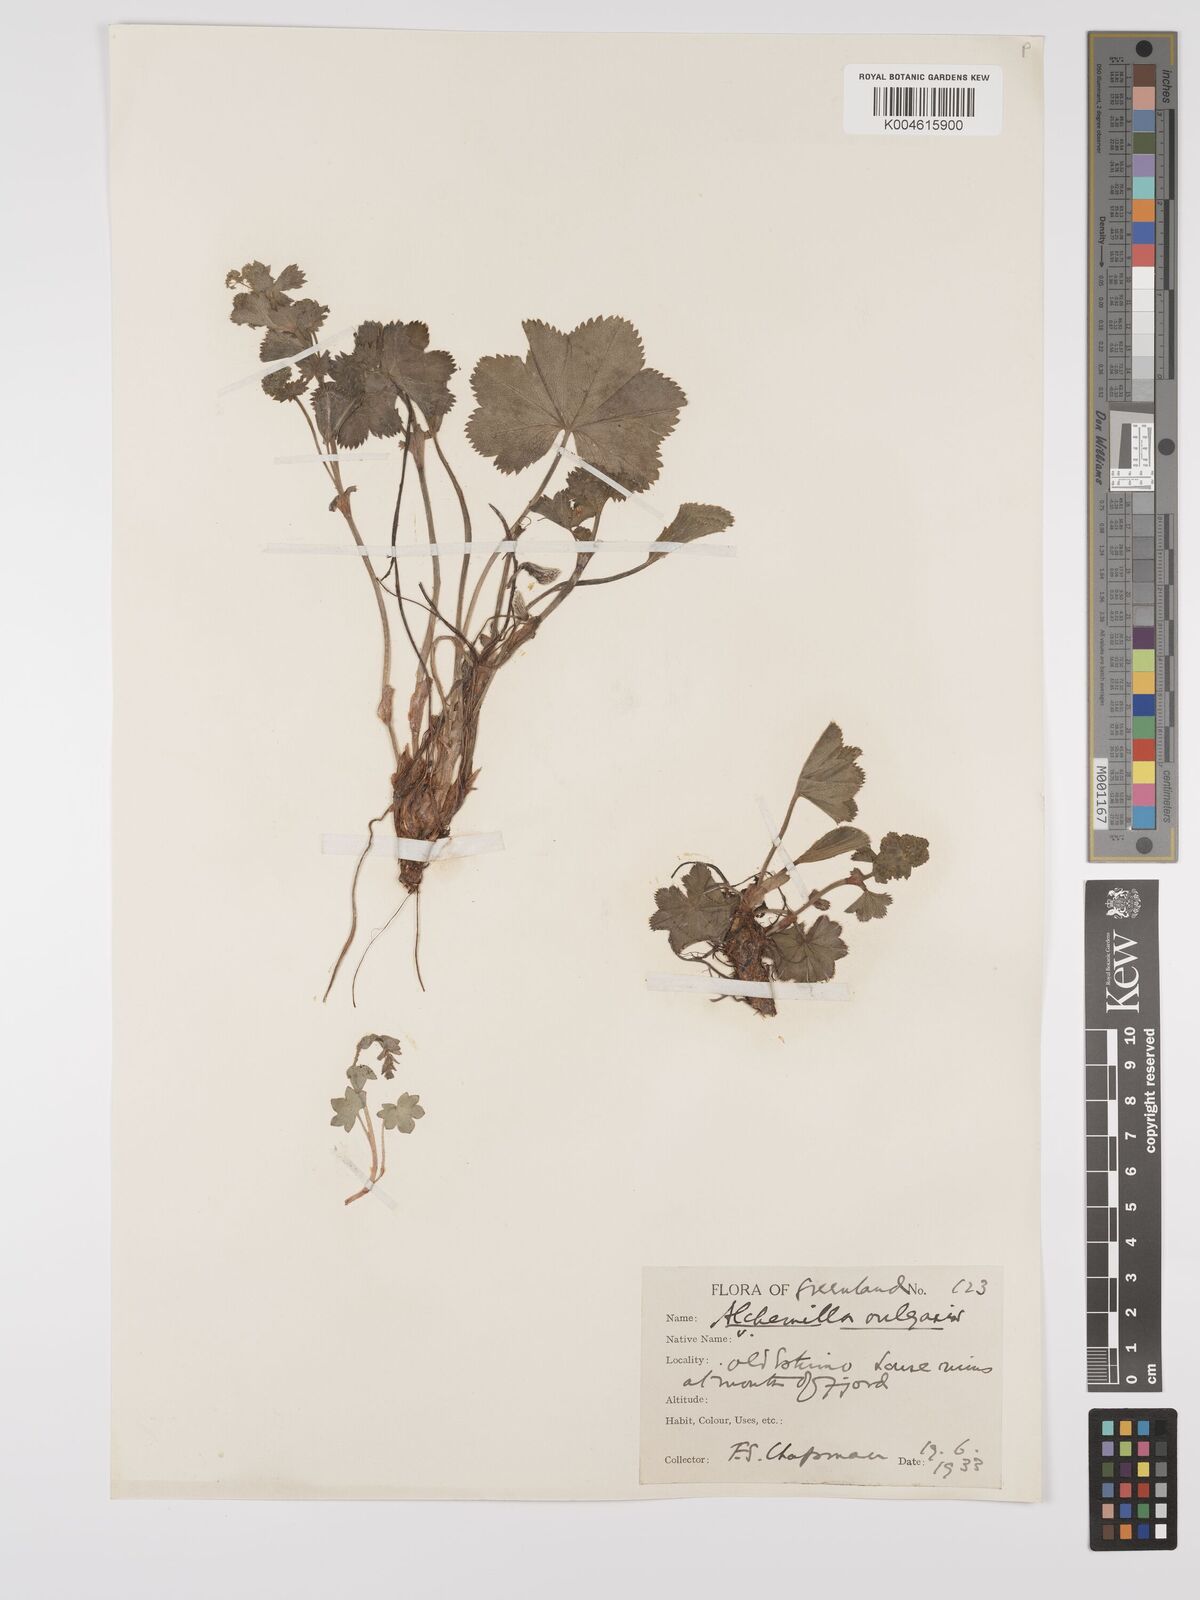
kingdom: Plantae
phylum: Tracheophyta
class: Magnoliopsida
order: Rosales
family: Rosaceae
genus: Alchemilla
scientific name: Alchemilla vulgaris
